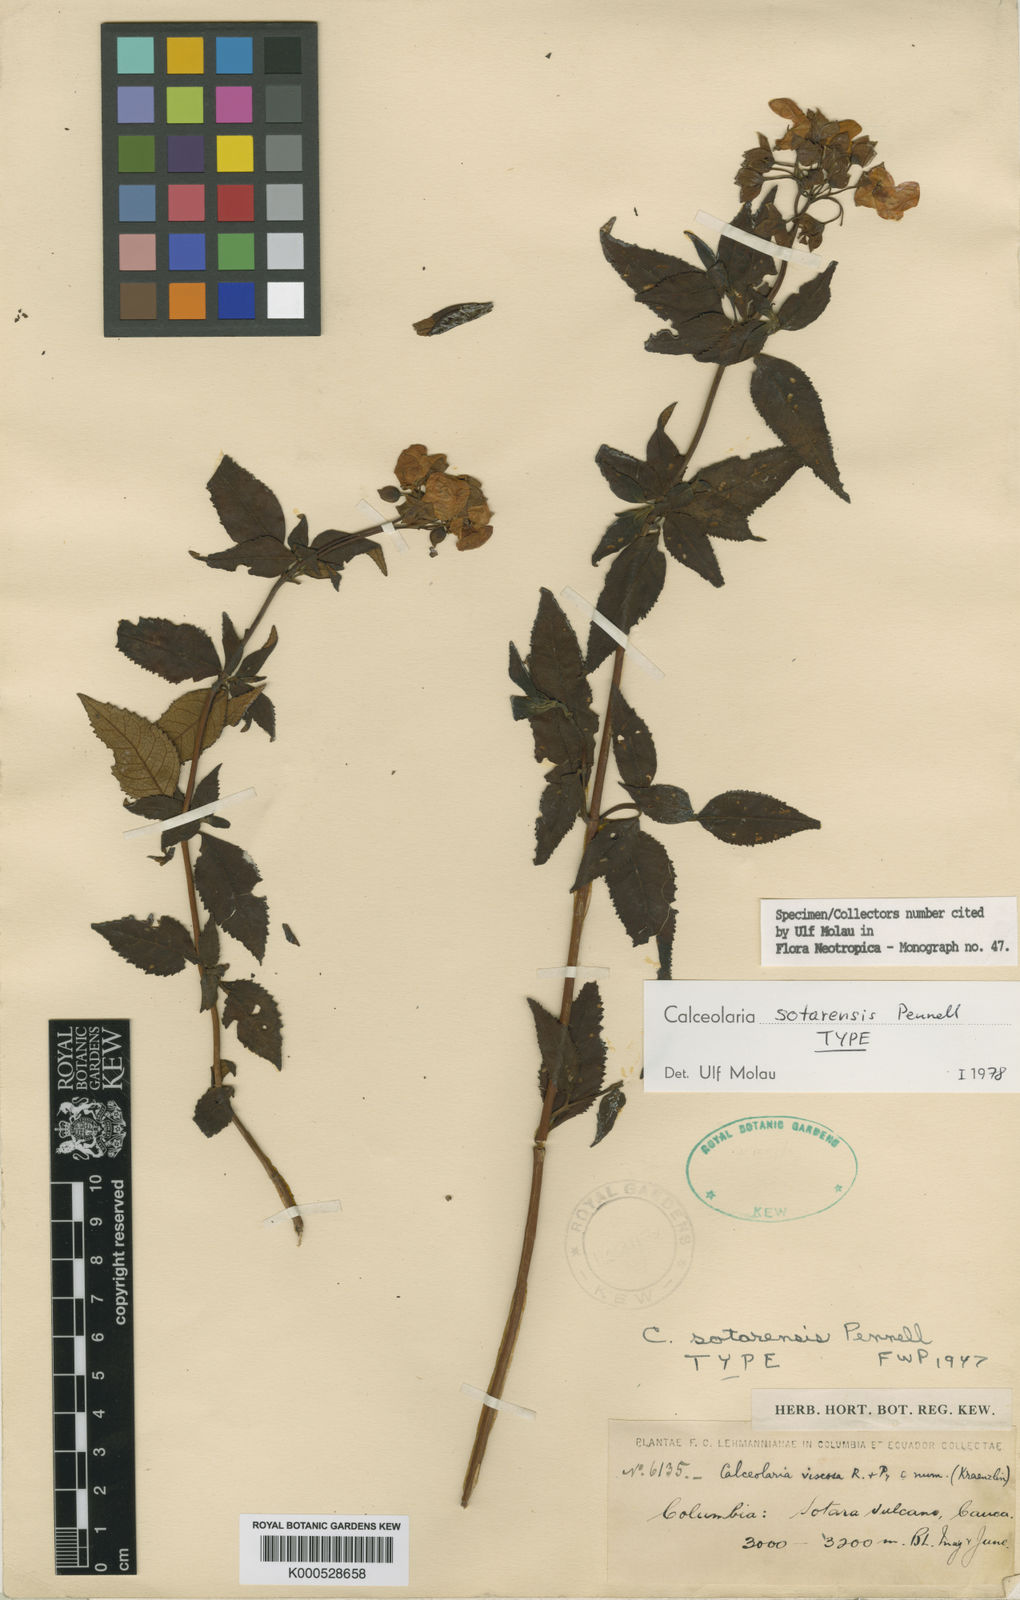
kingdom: Plantae
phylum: Tracheophyta
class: Magnoliopsida
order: Lamiales
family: Calceolariaceae
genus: Calceolaria
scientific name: Calceolaria sotarensis
